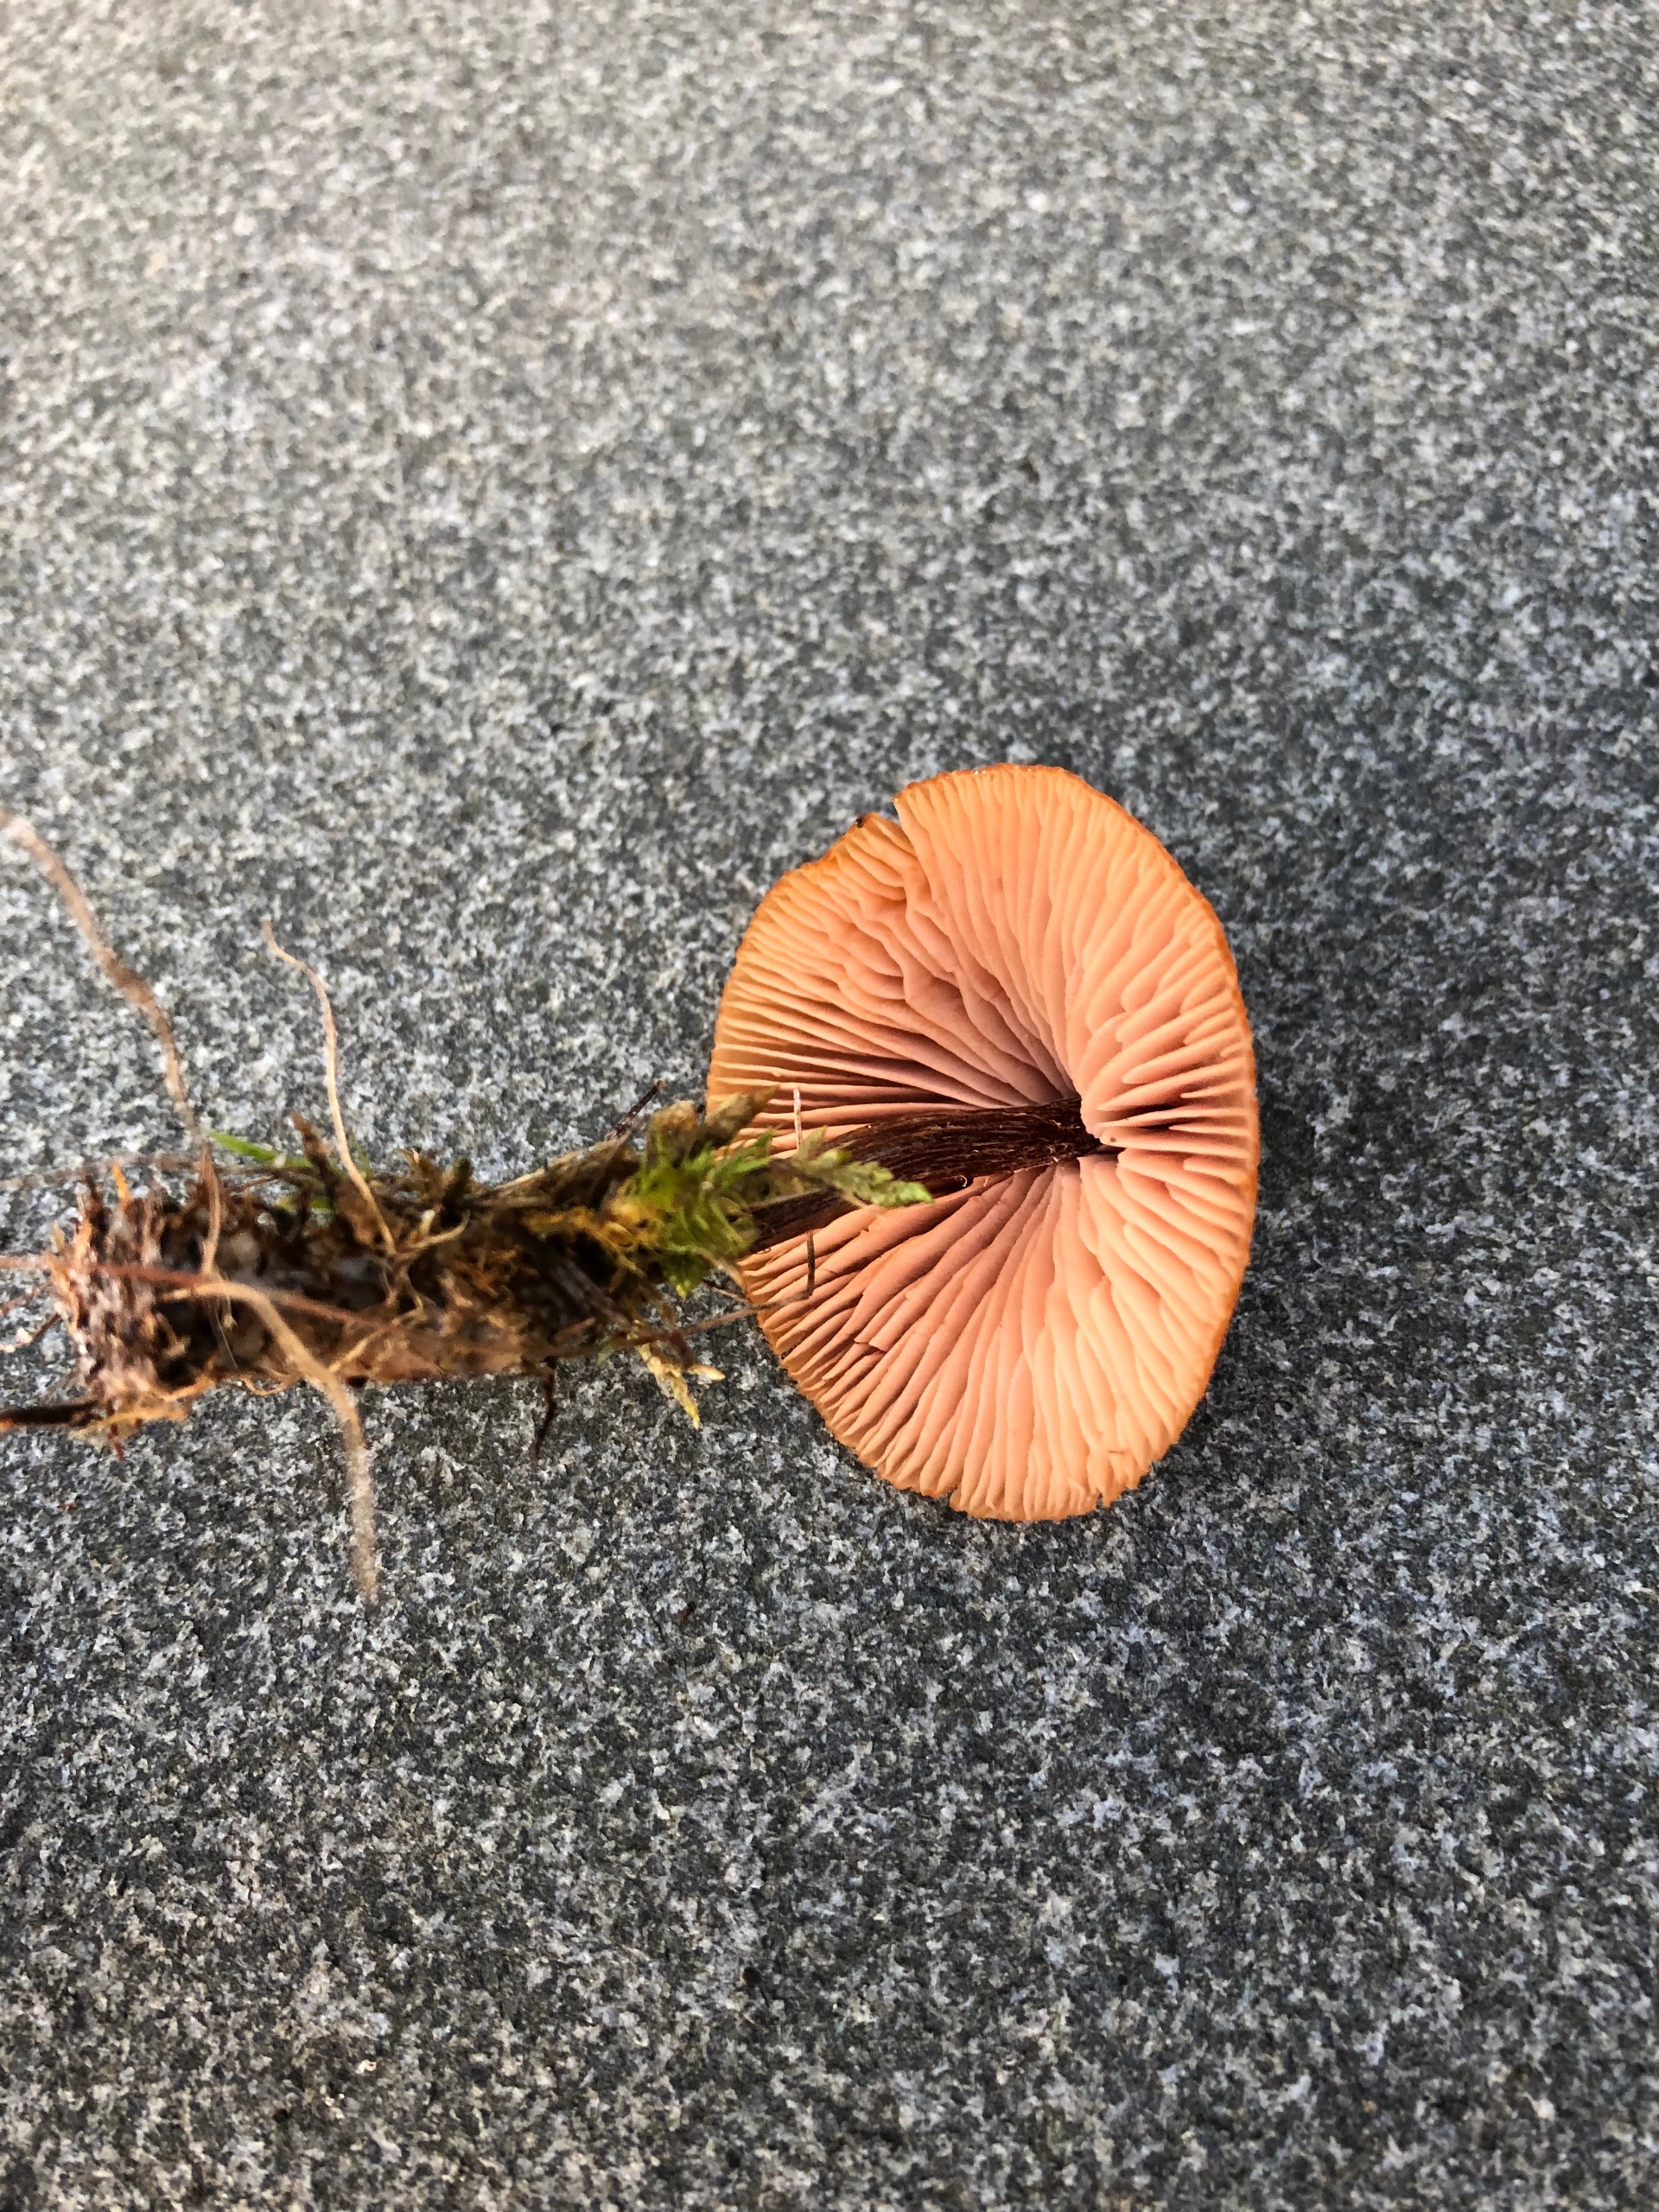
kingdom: Fungi
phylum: Basidiomycota
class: Agaricomycetes
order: Agaricales
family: Hydnangiaceae
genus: Laccaria
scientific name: Laccaria proxima
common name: Stor ametysthat
